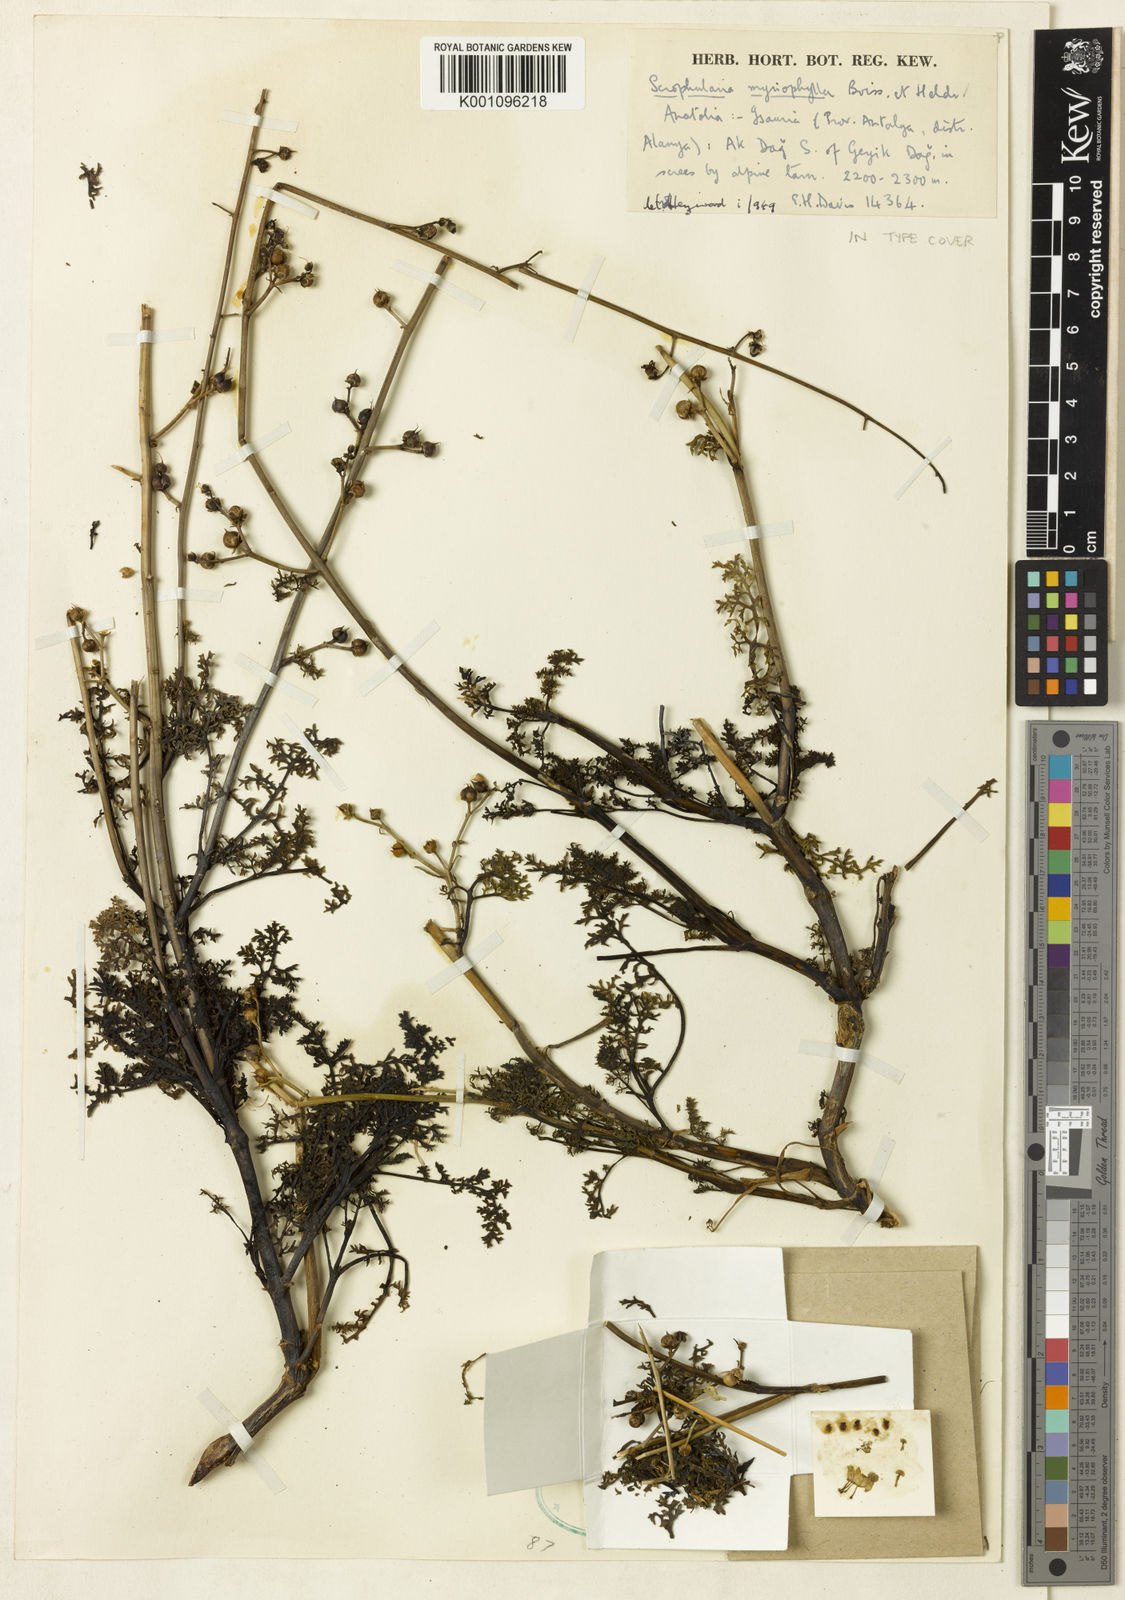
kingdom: Plantae
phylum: Tracheophyta
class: Magnoliopsida
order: Lamiales
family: Scrophulariaceae
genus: Scrophularia
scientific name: Scrophularia myriophylla
